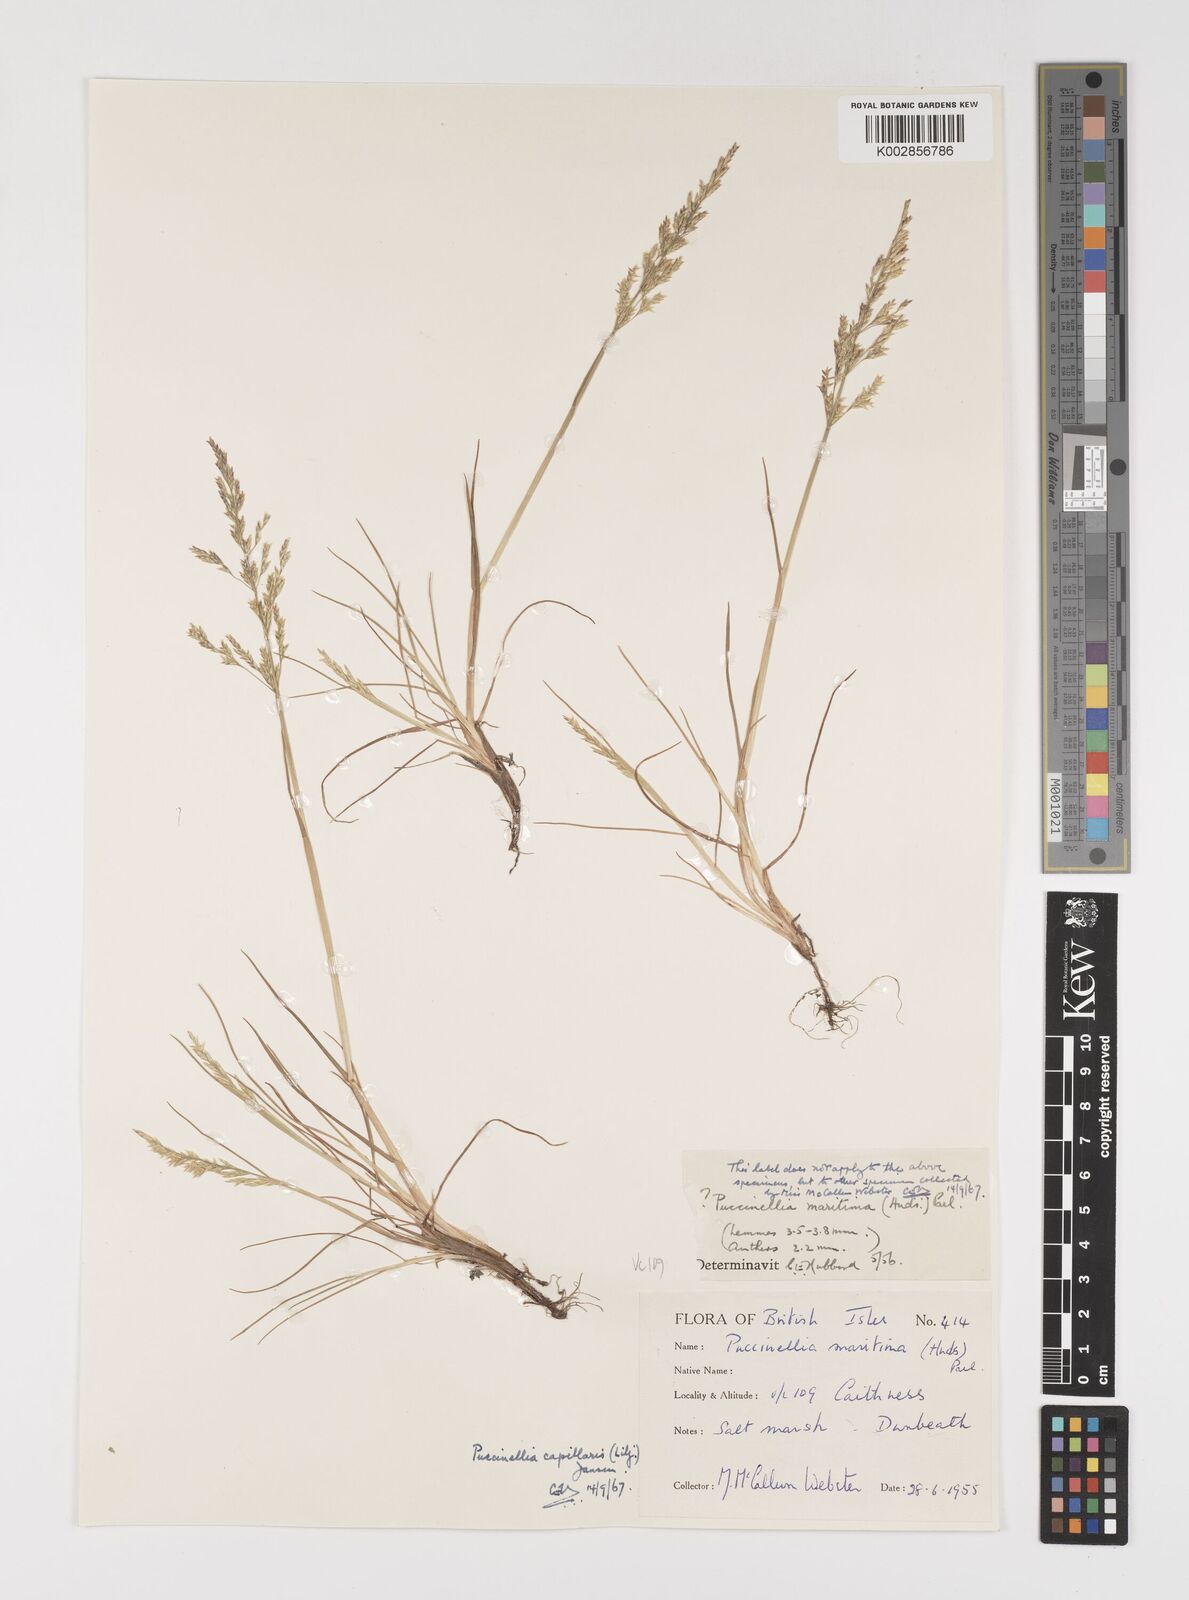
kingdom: Plantae
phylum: Tracheophyta
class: Liliopsida
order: Poales
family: Poaceae
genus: Puccinellia
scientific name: Puccinellia distans
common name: Weeping alkaligrass
